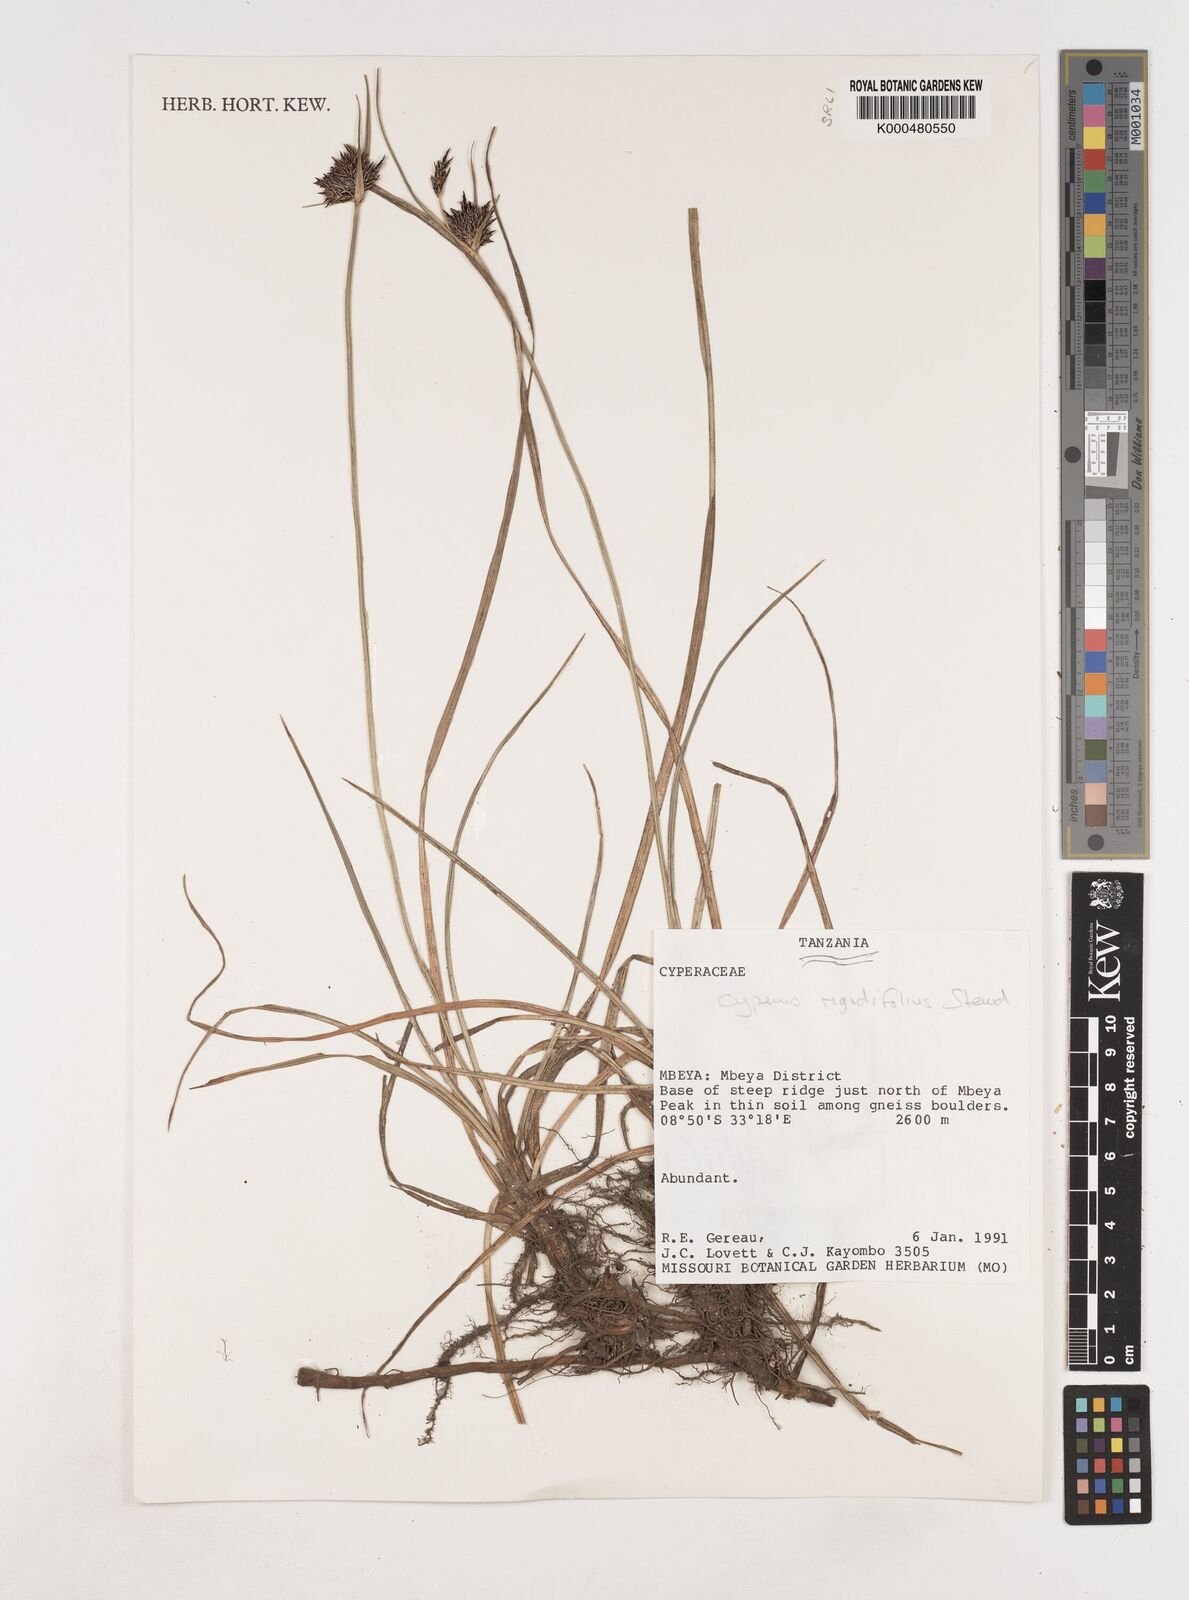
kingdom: Plantae
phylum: Tracheophyta
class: Liliopsida
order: Poales
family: Cyperaceae
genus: Cyperus
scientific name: Cyperus rigidifolius
